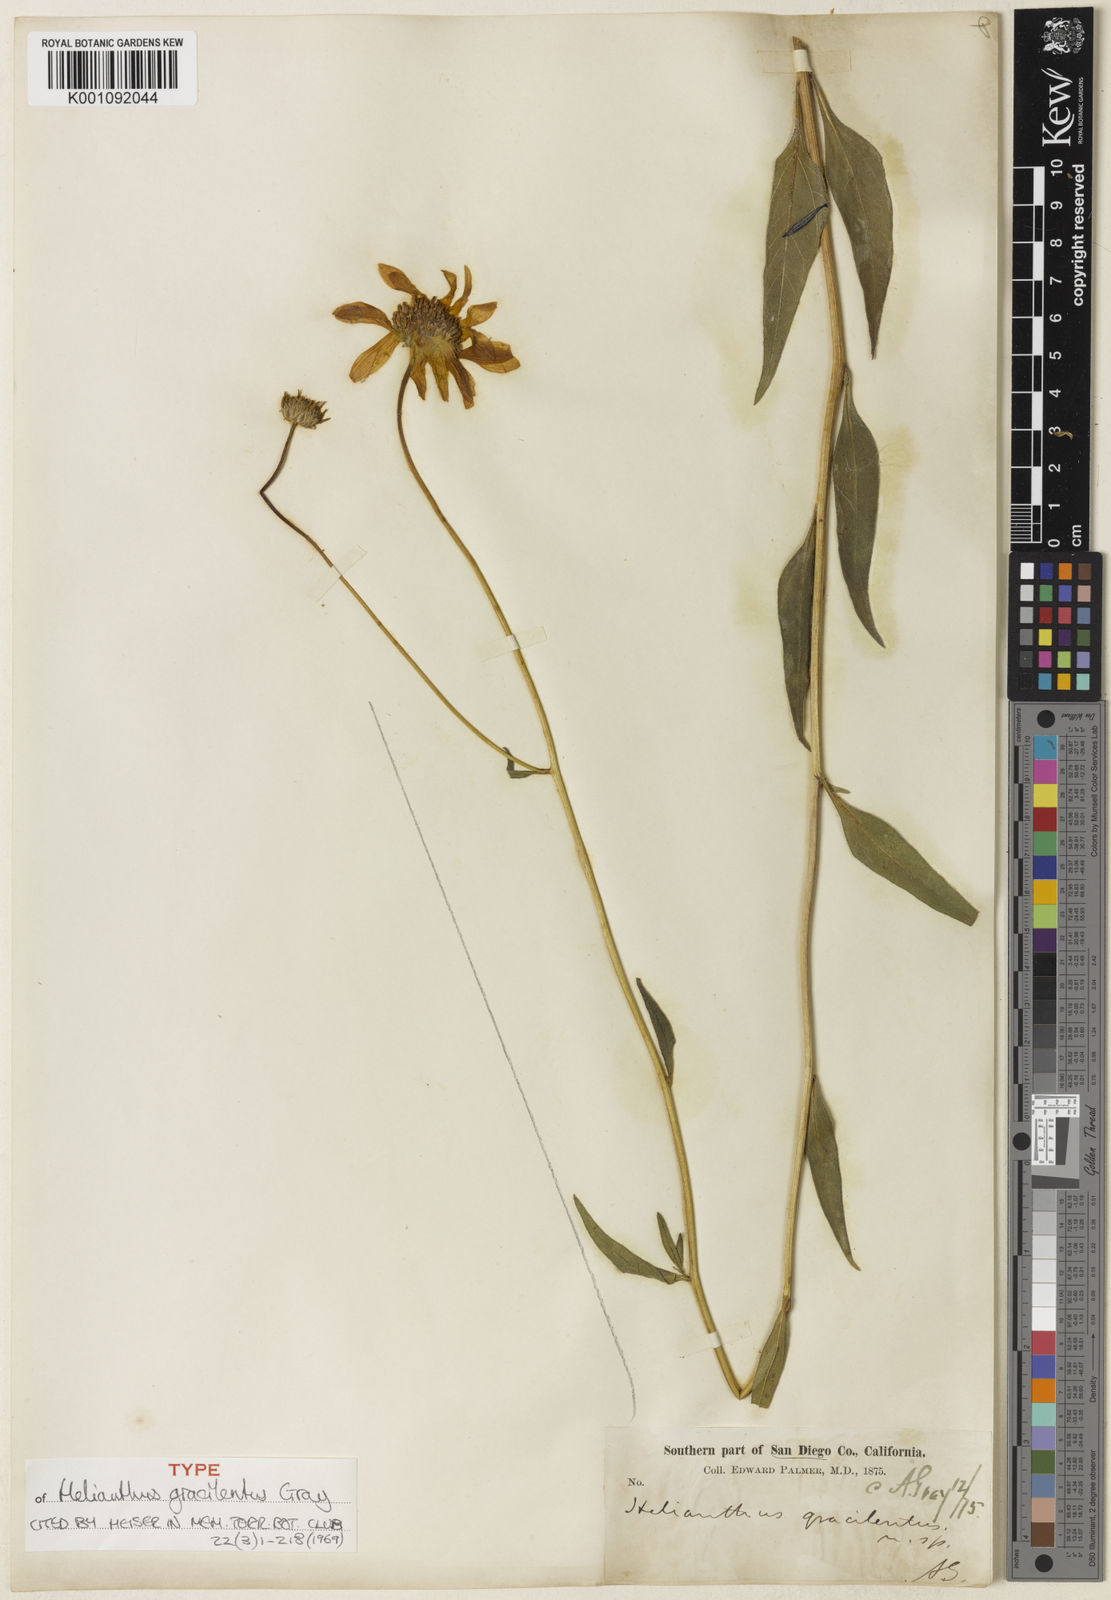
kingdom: Plantae
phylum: Tracheophyta
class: Magnoliopsida
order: Asterales
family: Asteraceae
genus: Helianthus
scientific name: Helianthus gracilentus
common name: Slender sunflower
